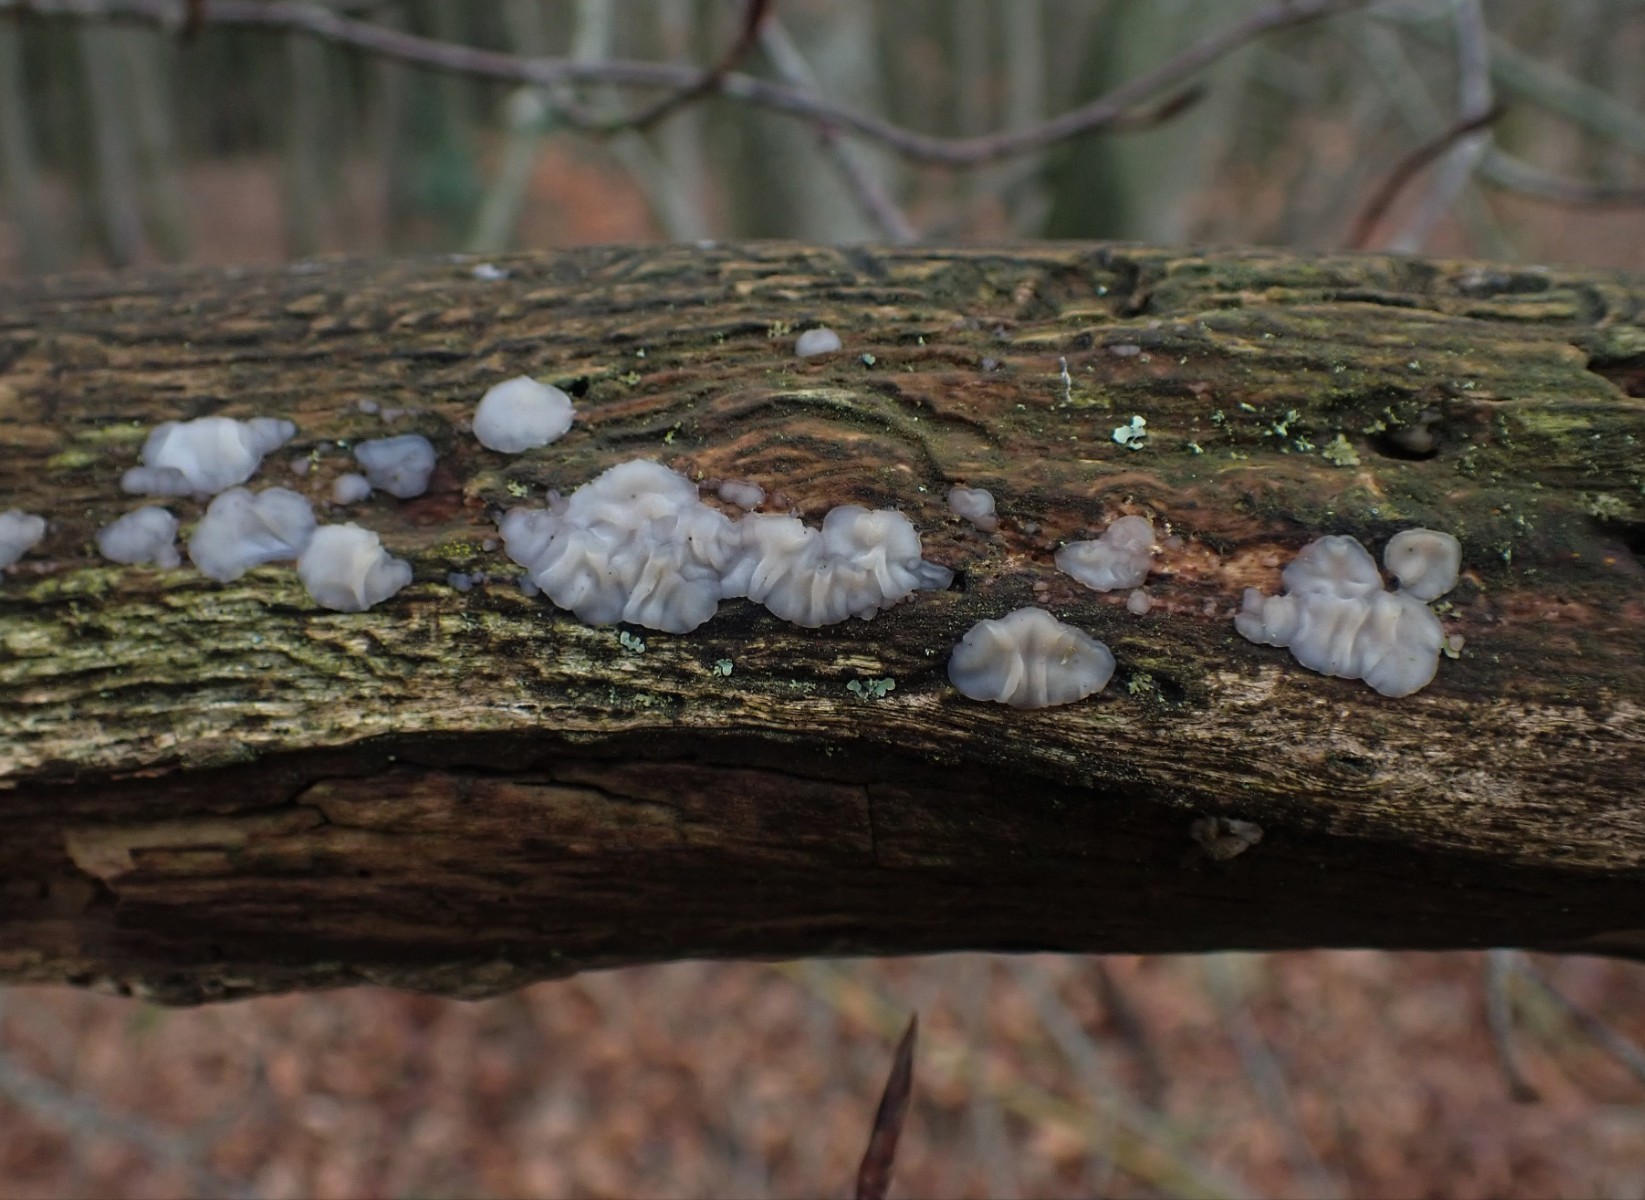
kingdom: Fungi
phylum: Basidiomycota
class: Agaricomycetes
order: Auriculariales
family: Auriculariaceae
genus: Exidia
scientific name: Exidia thuretiana
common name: hvidlig bævretop
